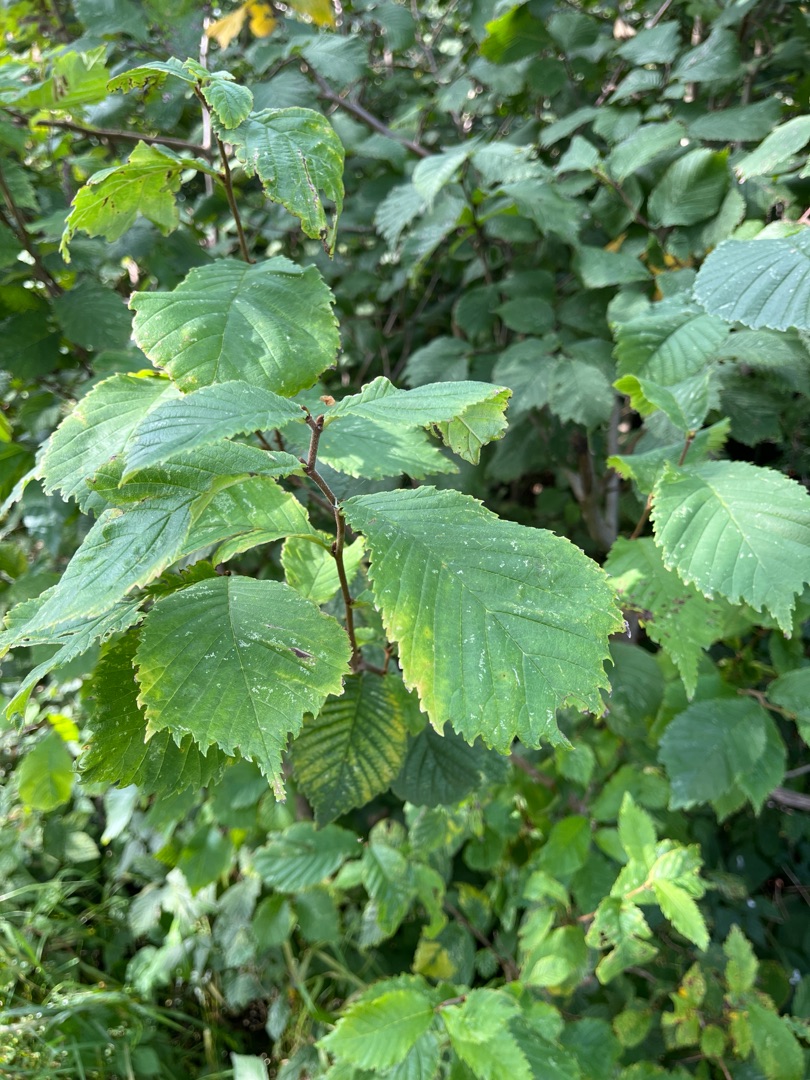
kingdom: Plantae
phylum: Tracheophyta
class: Magnoliopsida
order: Rosales
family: Ulmaceae
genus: Ulmus
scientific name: Ulmus glabra
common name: Skov-elm/storbladet elm
